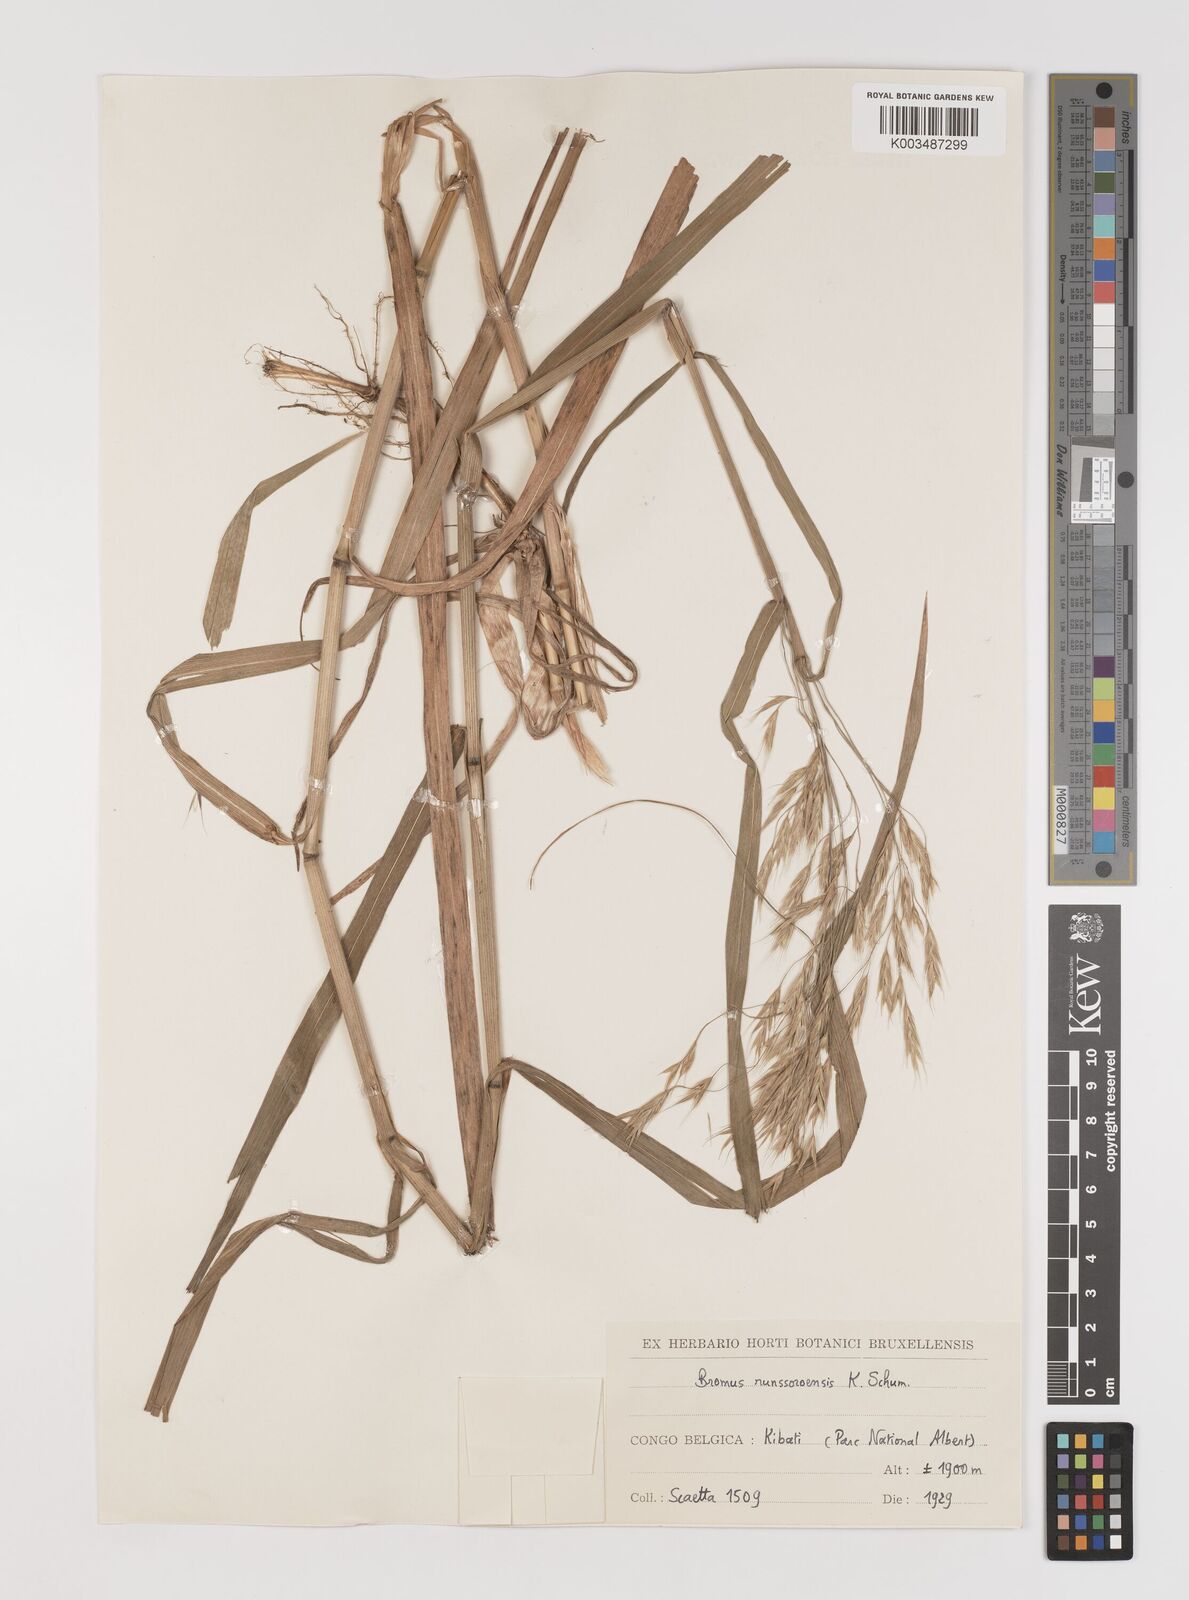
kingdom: Plantae
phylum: Tracheophyta
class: Liliopsida
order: Poales
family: Poaceae
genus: Bromus
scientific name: Bromus leptoclados
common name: Mountain bromegrass
